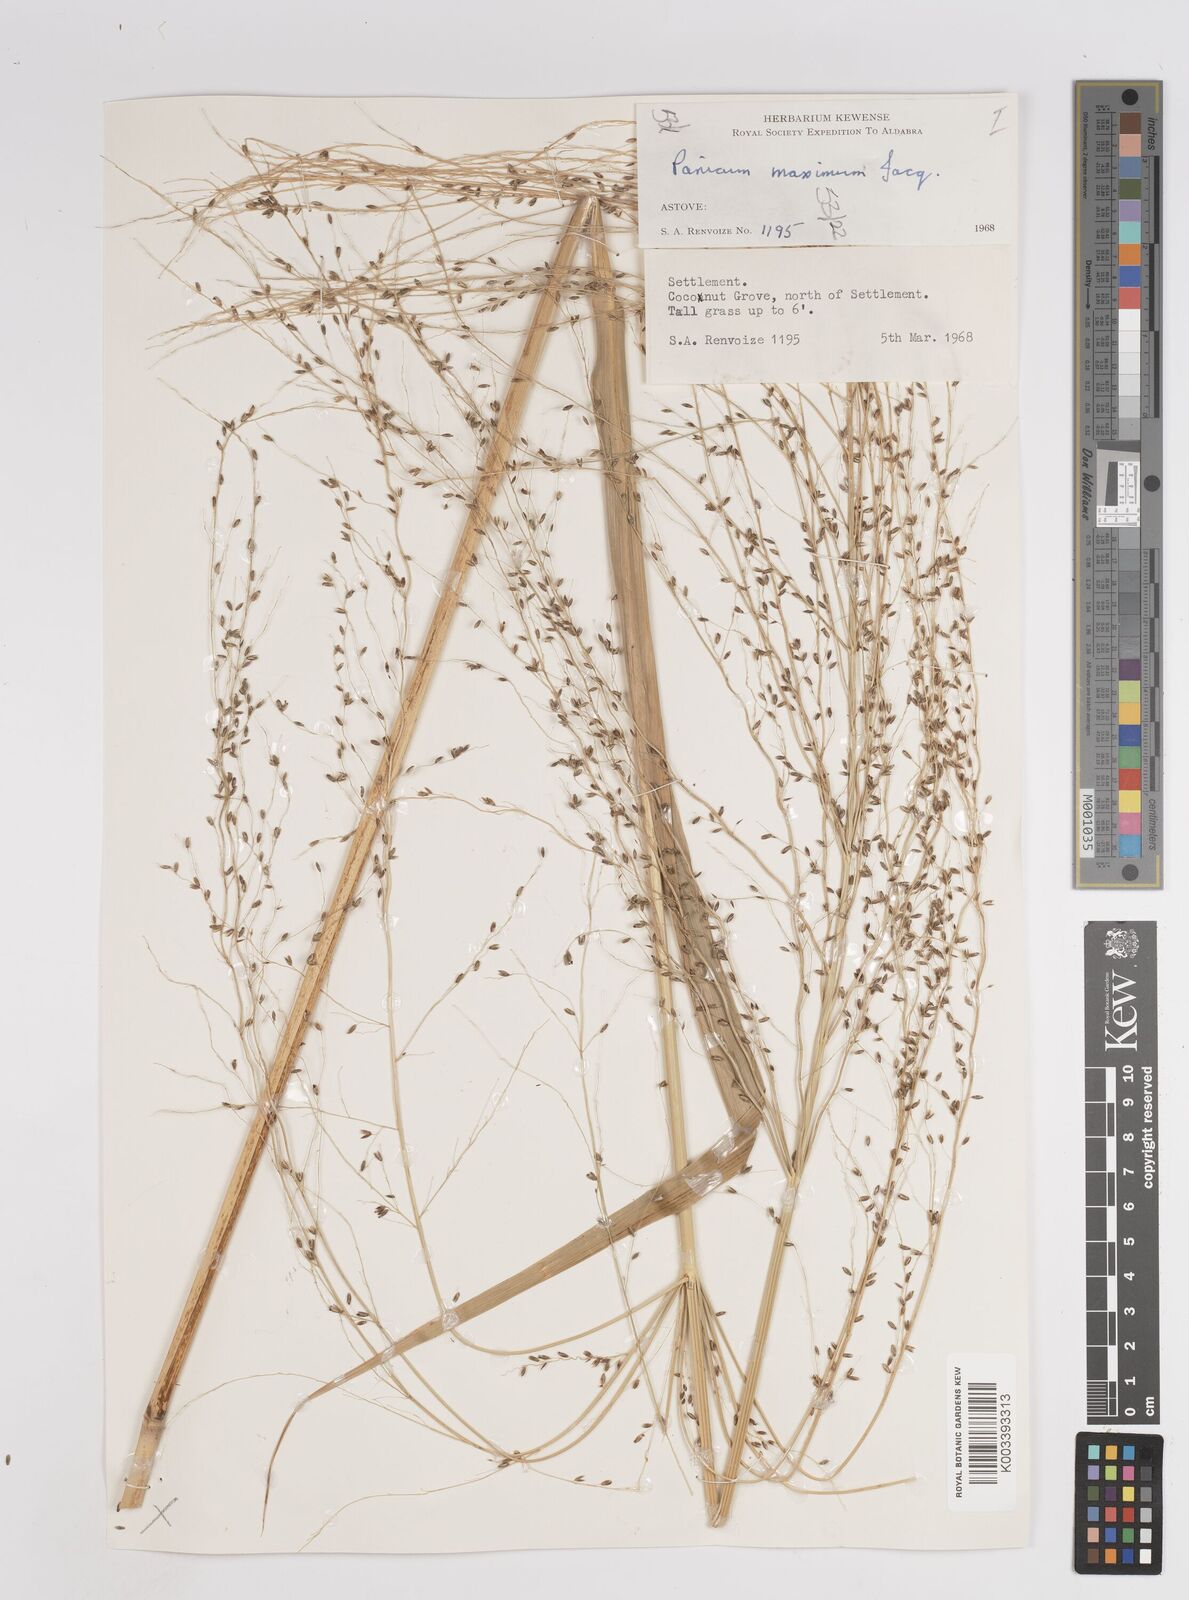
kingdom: Plantae
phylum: Tracheophyta
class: Liliopsida
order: Poales
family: Poaceae
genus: Megathyrsus
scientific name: Megathyrsus maximus
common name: Guineagrass
